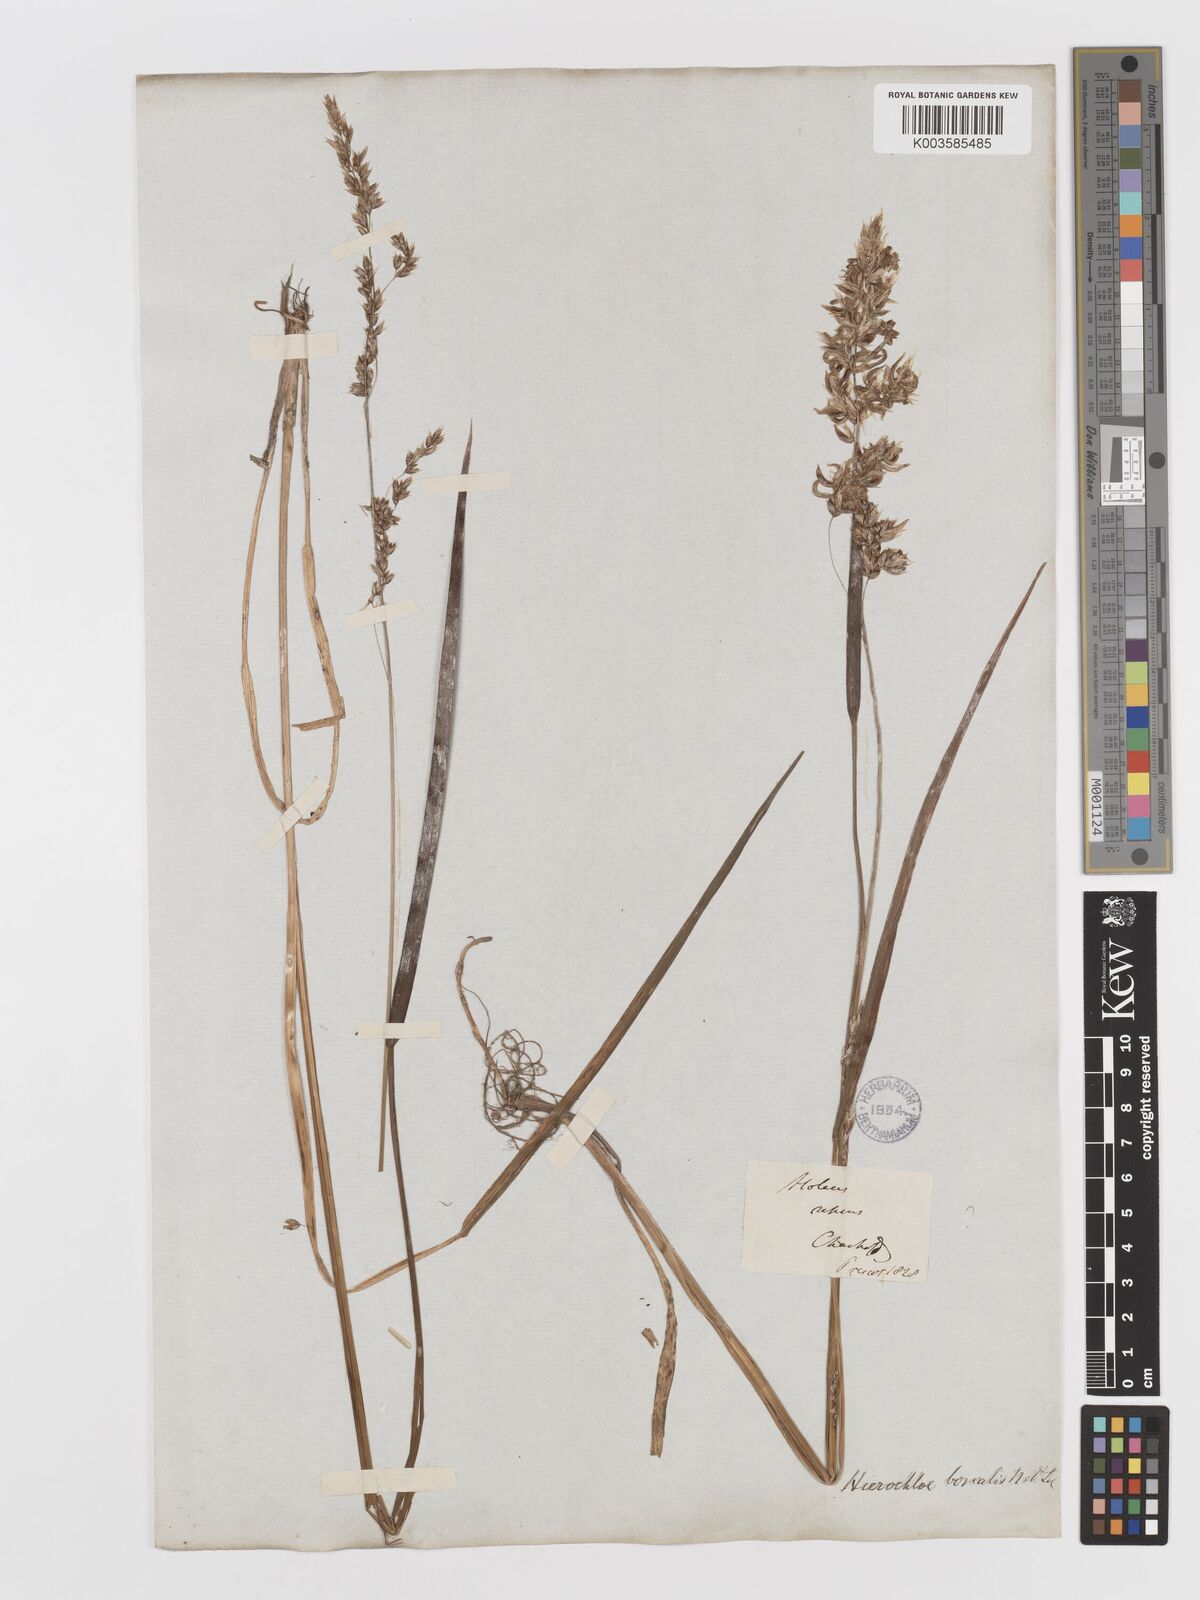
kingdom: Plantae
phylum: Tracheophyta
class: Liliopsida
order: Poales
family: Poaceae
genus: Anthoxanthum
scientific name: Anthoxanthum nitens
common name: Holy grass
